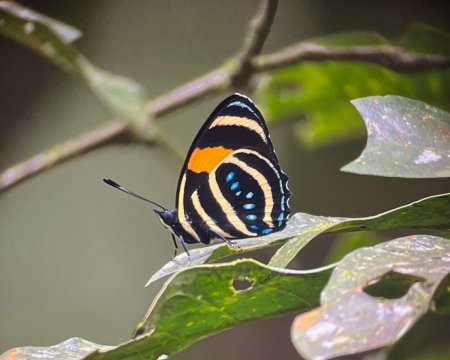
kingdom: Animalia
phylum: Arthropoda
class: Insecta
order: Lepidoptera
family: Nymphalidae
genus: Catagramma
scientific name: Catagramma Callicore lyca
